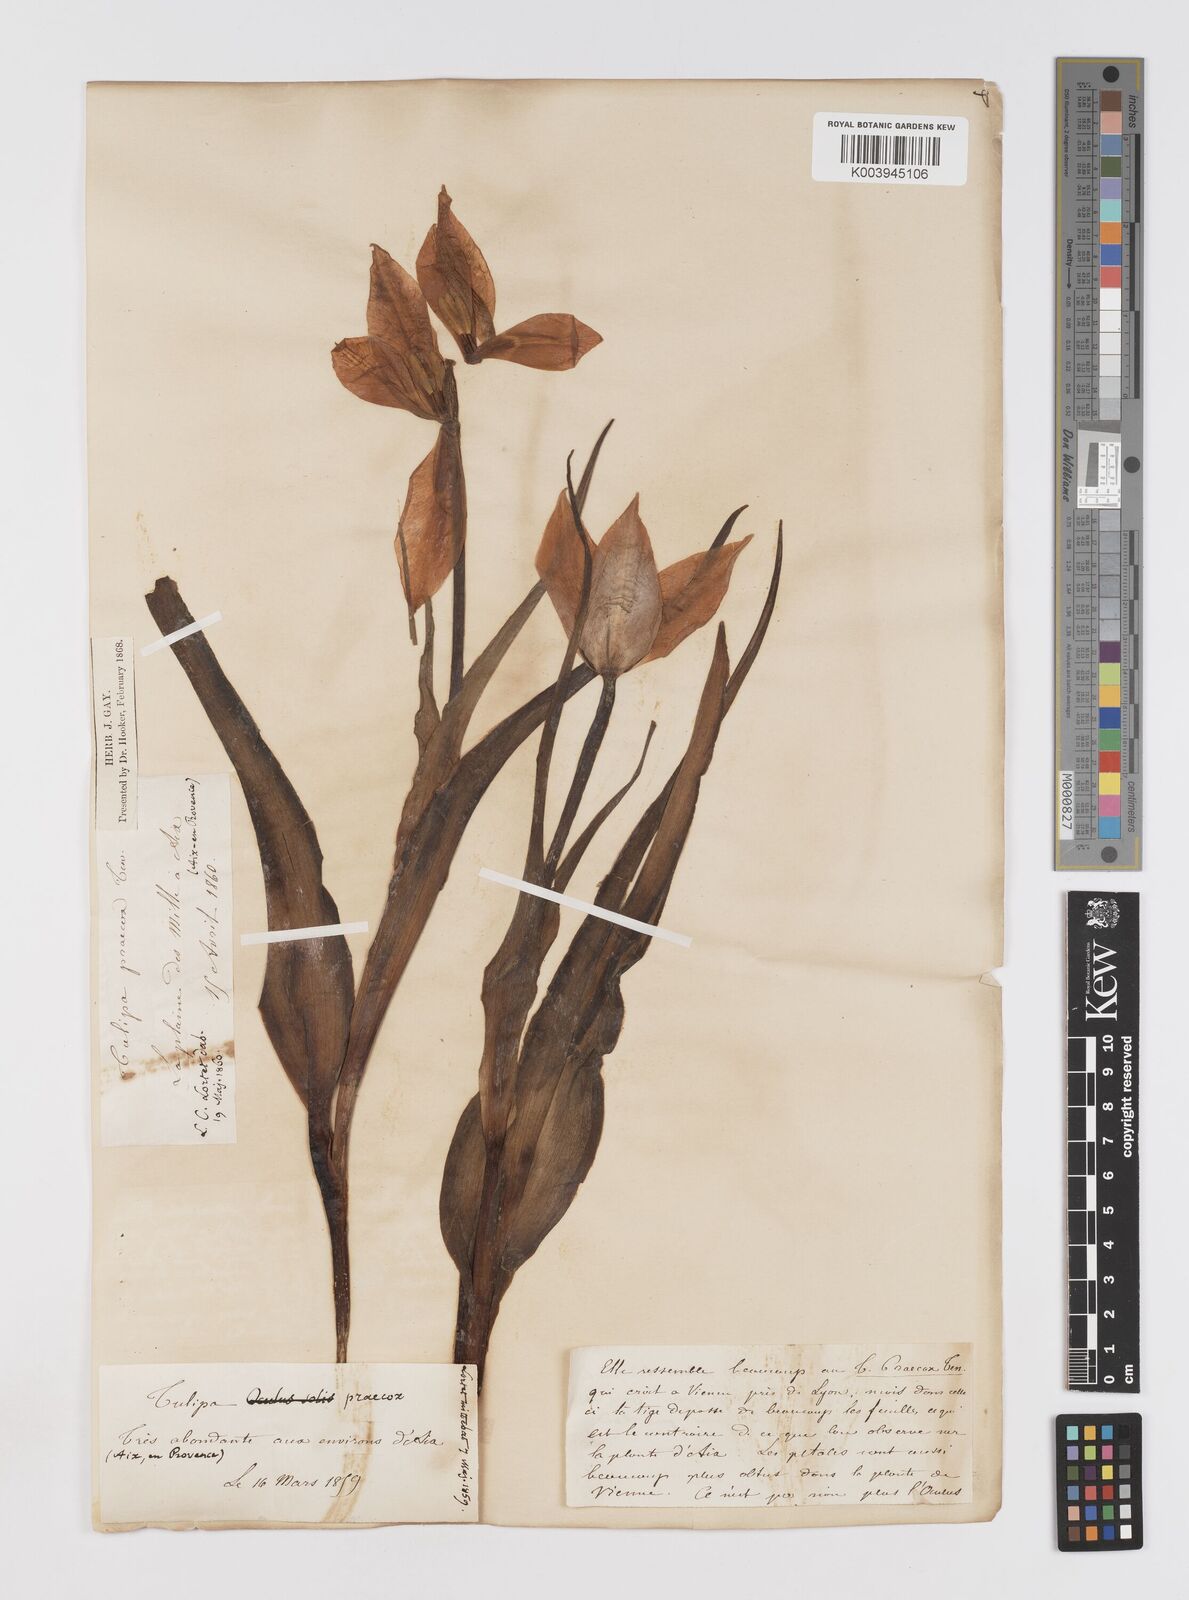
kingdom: Plantae
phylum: Tracheophyta
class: Liliopsida
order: Liliales
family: Liliaceae
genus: Tulipa
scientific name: Tulipa
